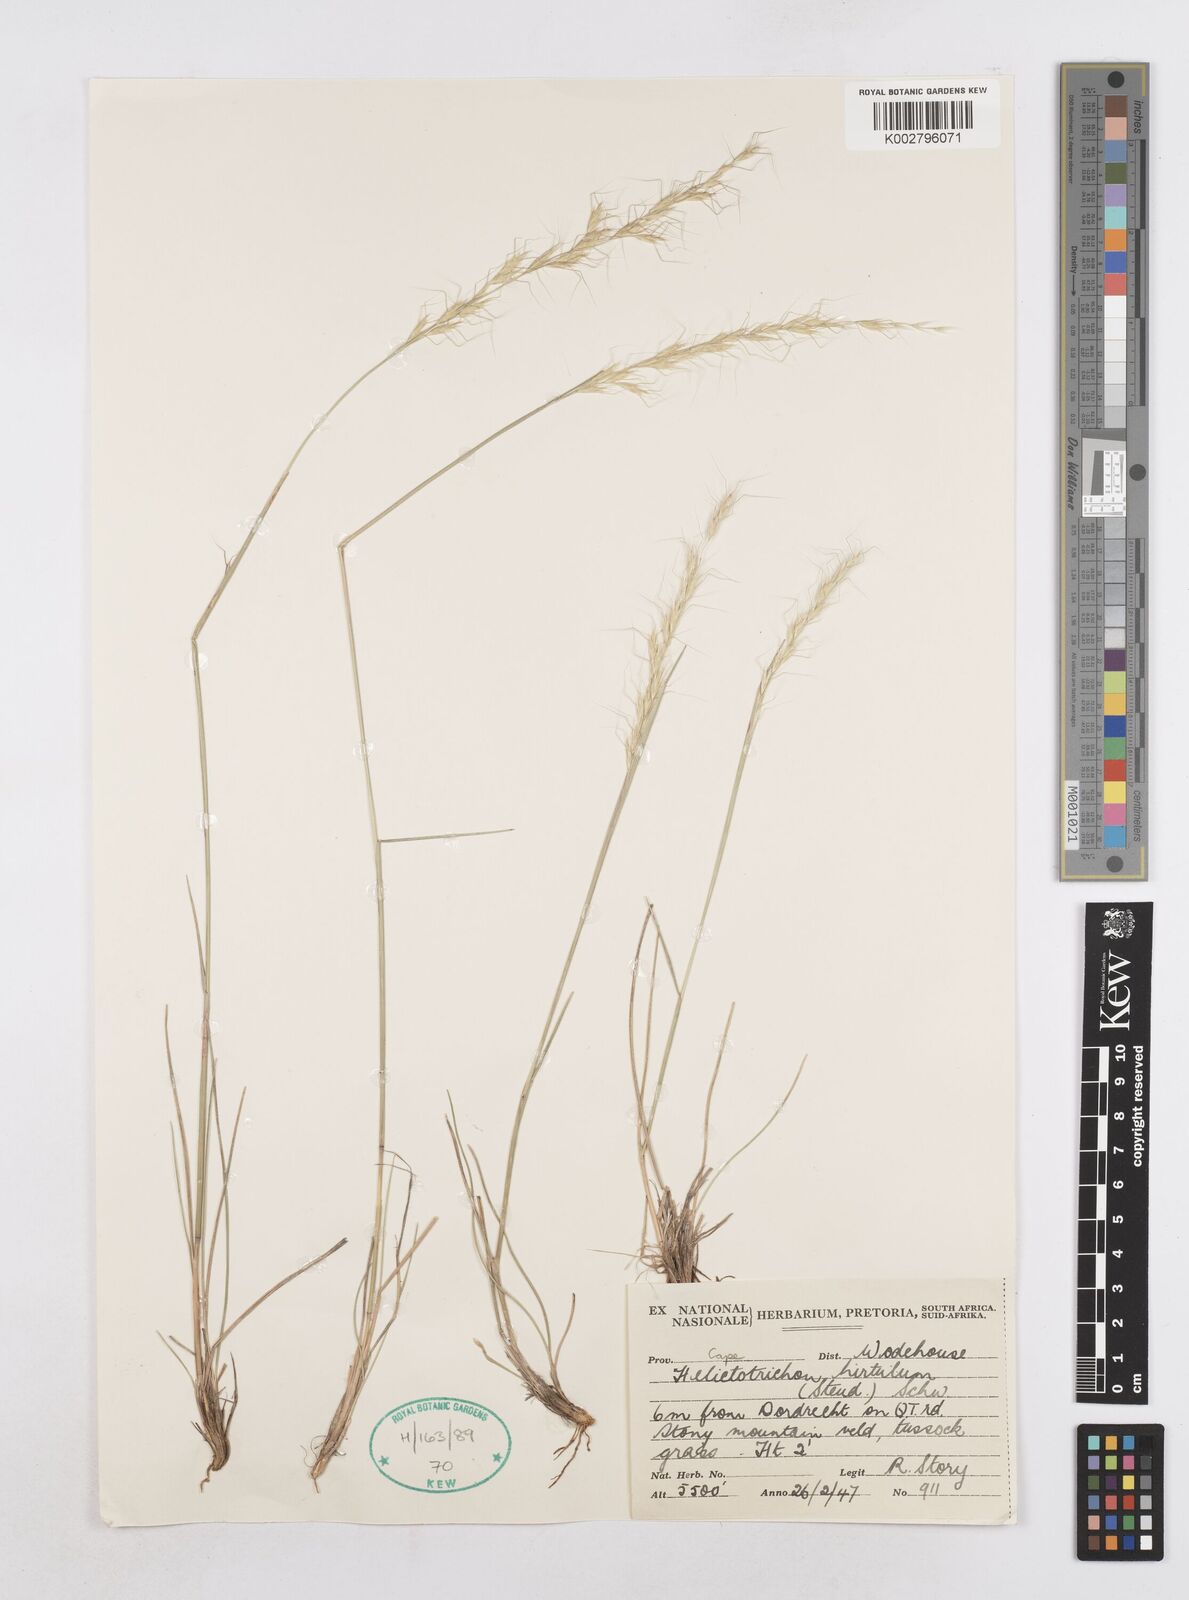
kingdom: Plantae
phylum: Tracheophyta
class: Liliopsida
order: Poales
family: Poaceae
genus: Trisetopsis
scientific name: Trisetopsis hirtula
